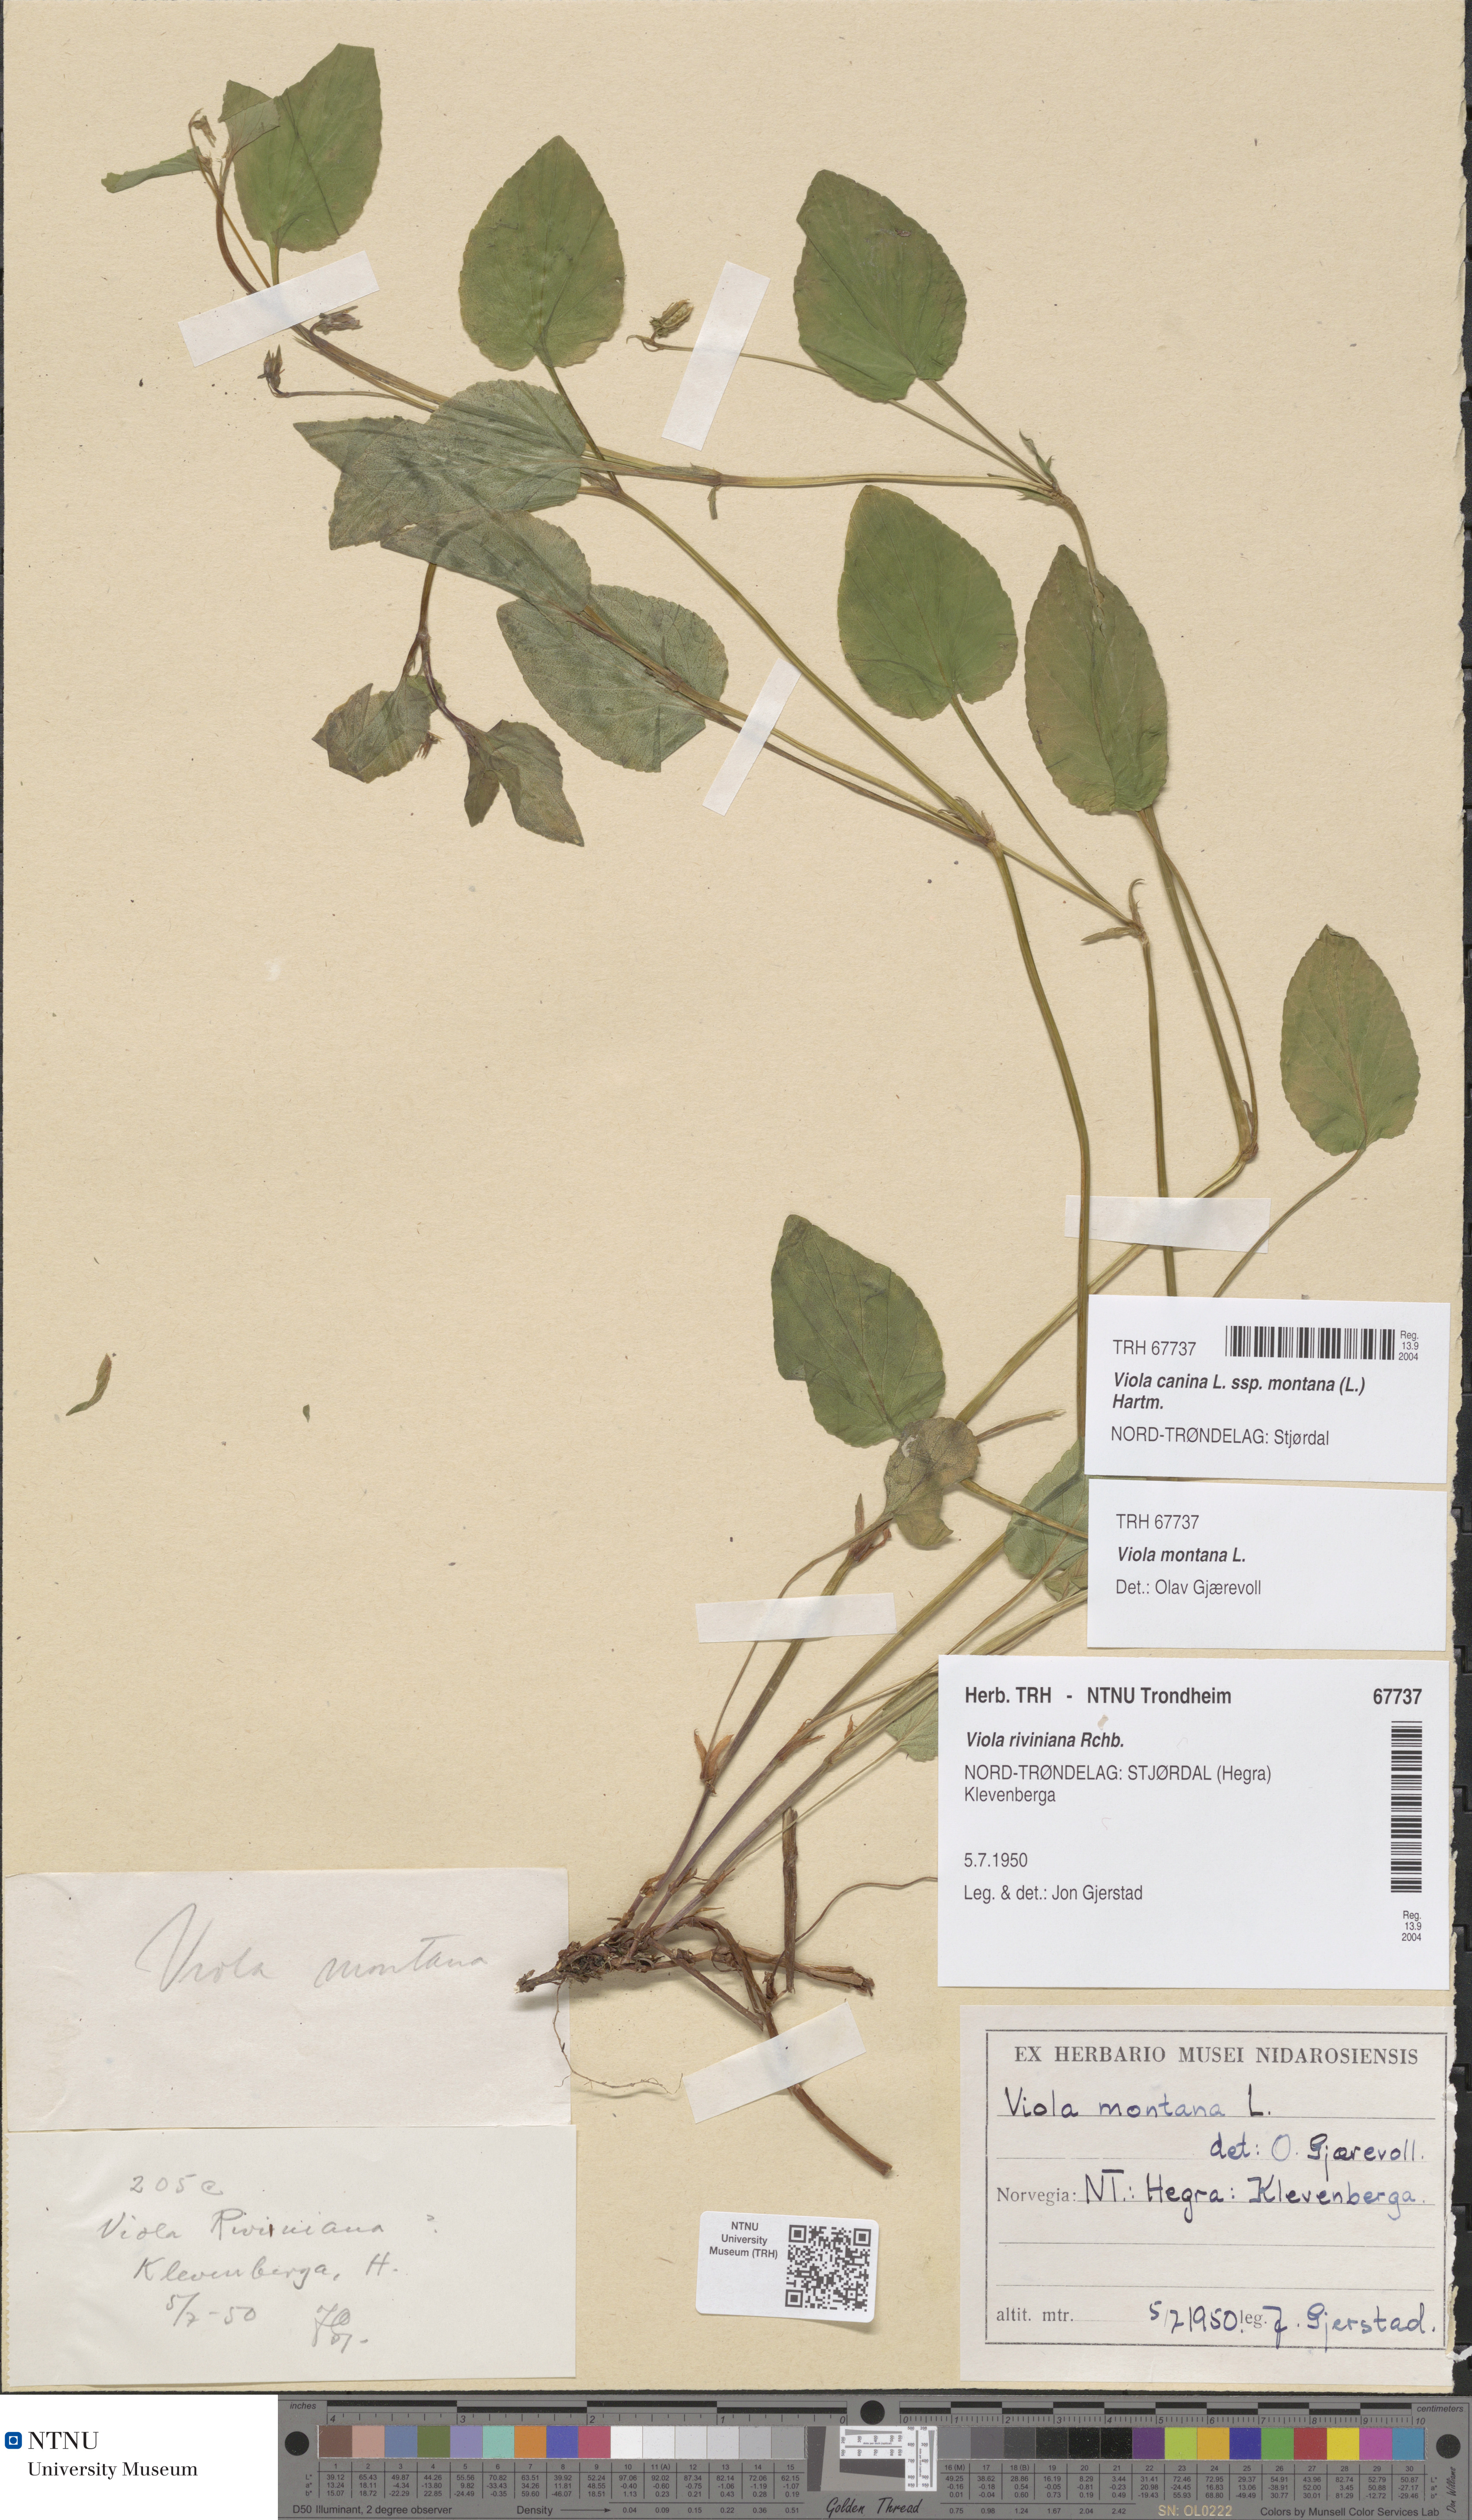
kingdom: Plantae
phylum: Tracheophyta
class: Magnoliopsida
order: Malpighiales
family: Violaceae
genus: Viola
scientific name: Viola ruppii
